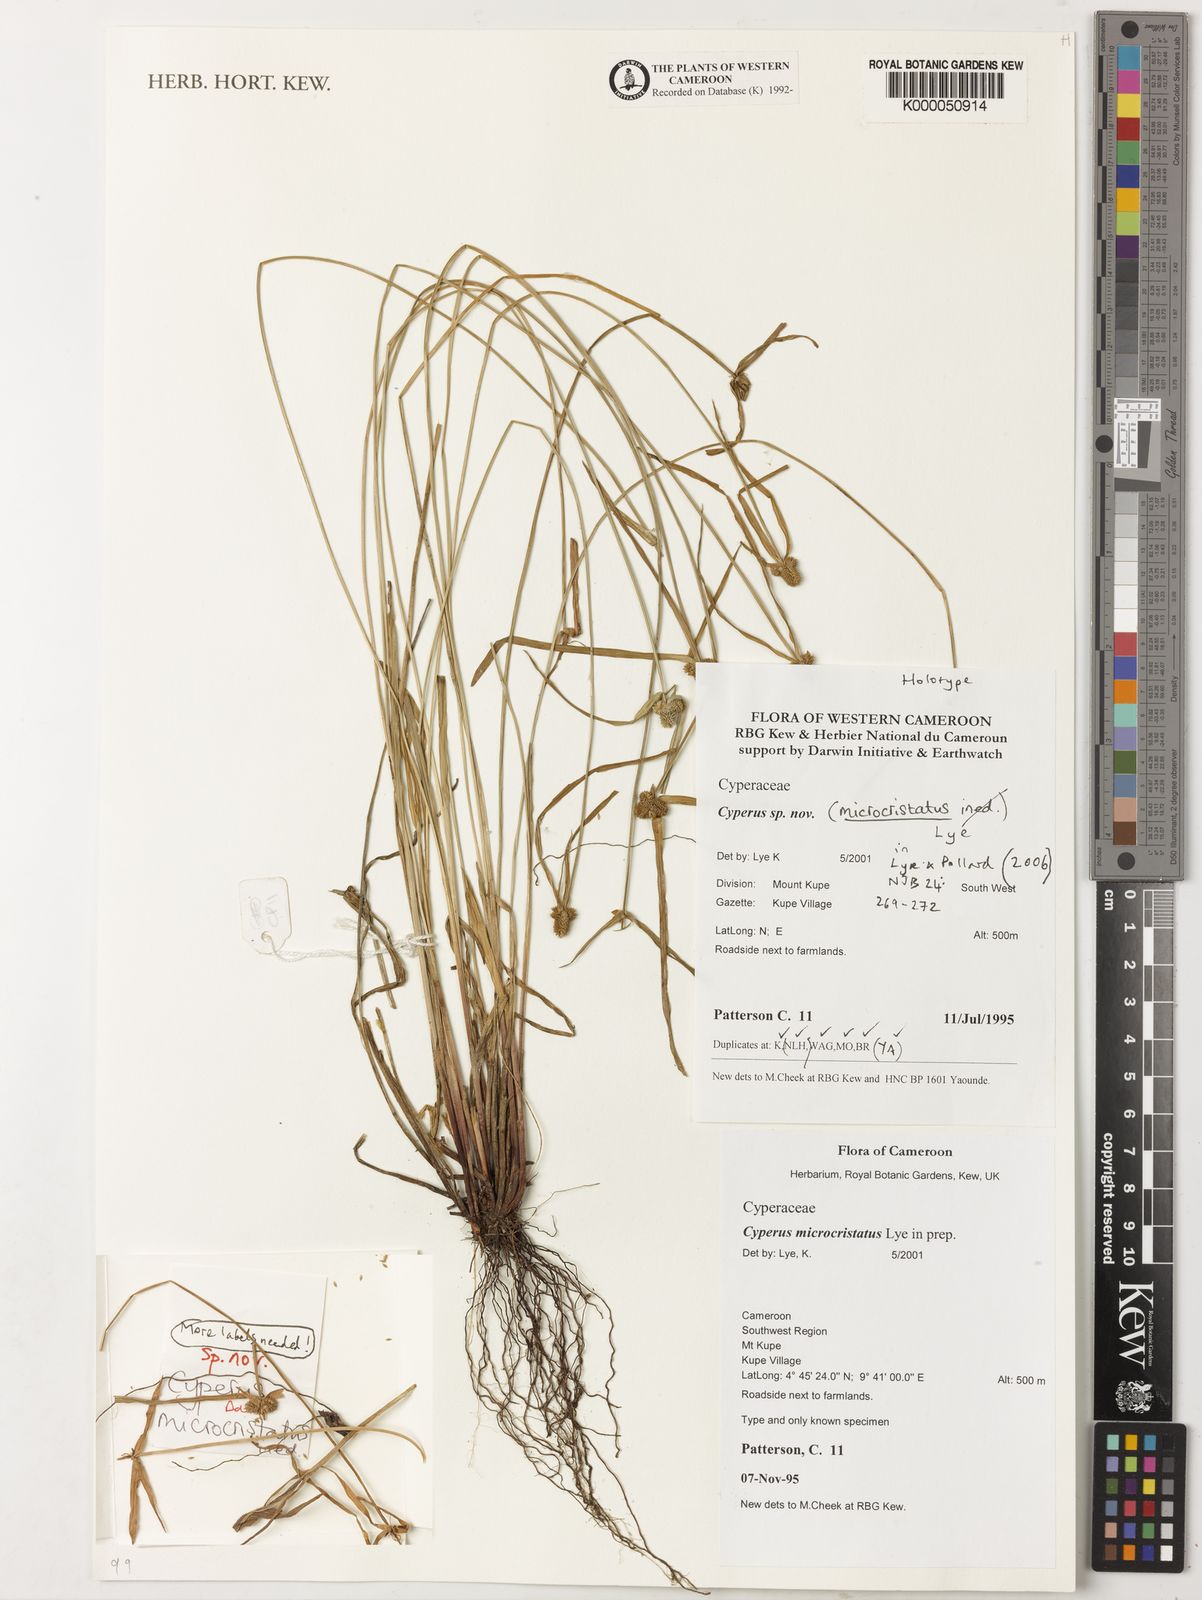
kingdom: Plantae
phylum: Tracheophyta
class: Liliopsida
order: Poales
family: Cyperaceae
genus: Cyperus
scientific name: Cyperus microcristatus
